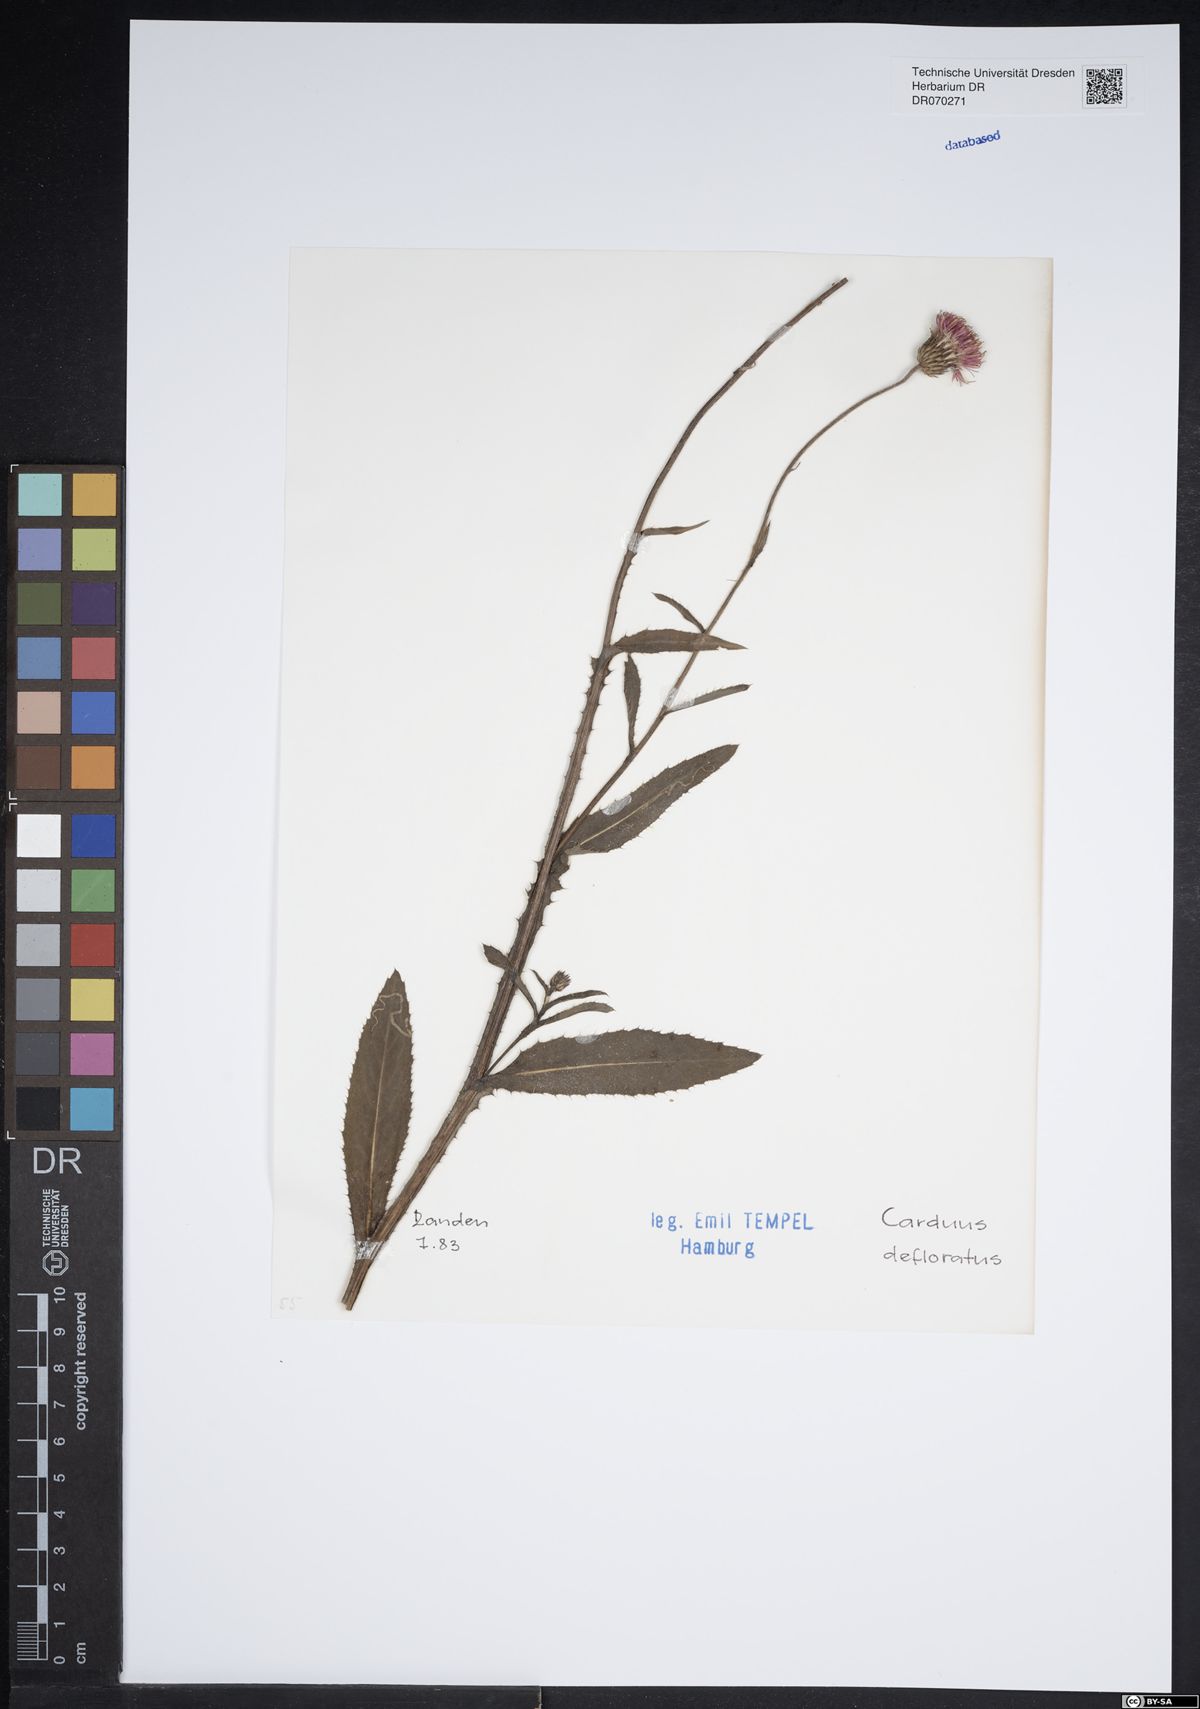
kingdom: Plantae
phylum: Tracheophyta
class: Magnoliopsida
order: Asterales
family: Asteraceae
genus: Carduus
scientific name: Carduus defloratus
